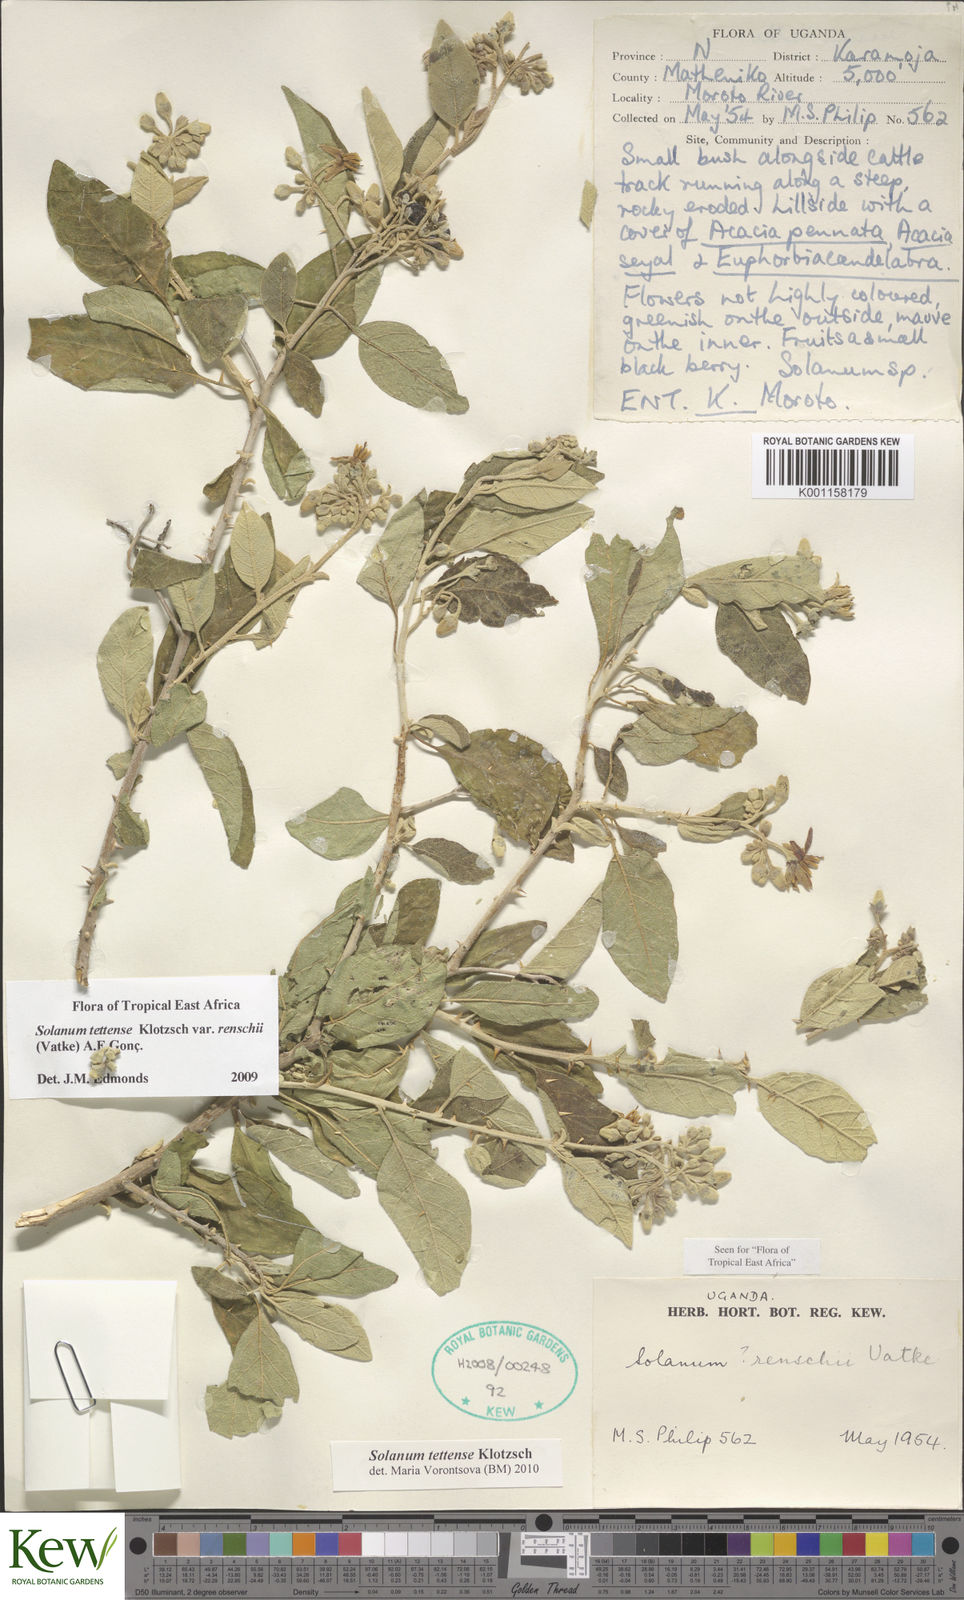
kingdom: Plantae
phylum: Tracheophyta
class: Magnoliopsida
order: Solanales
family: Solanaceae
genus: Solanum
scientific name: Solanum tettense
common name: Mozambique bitter apple
